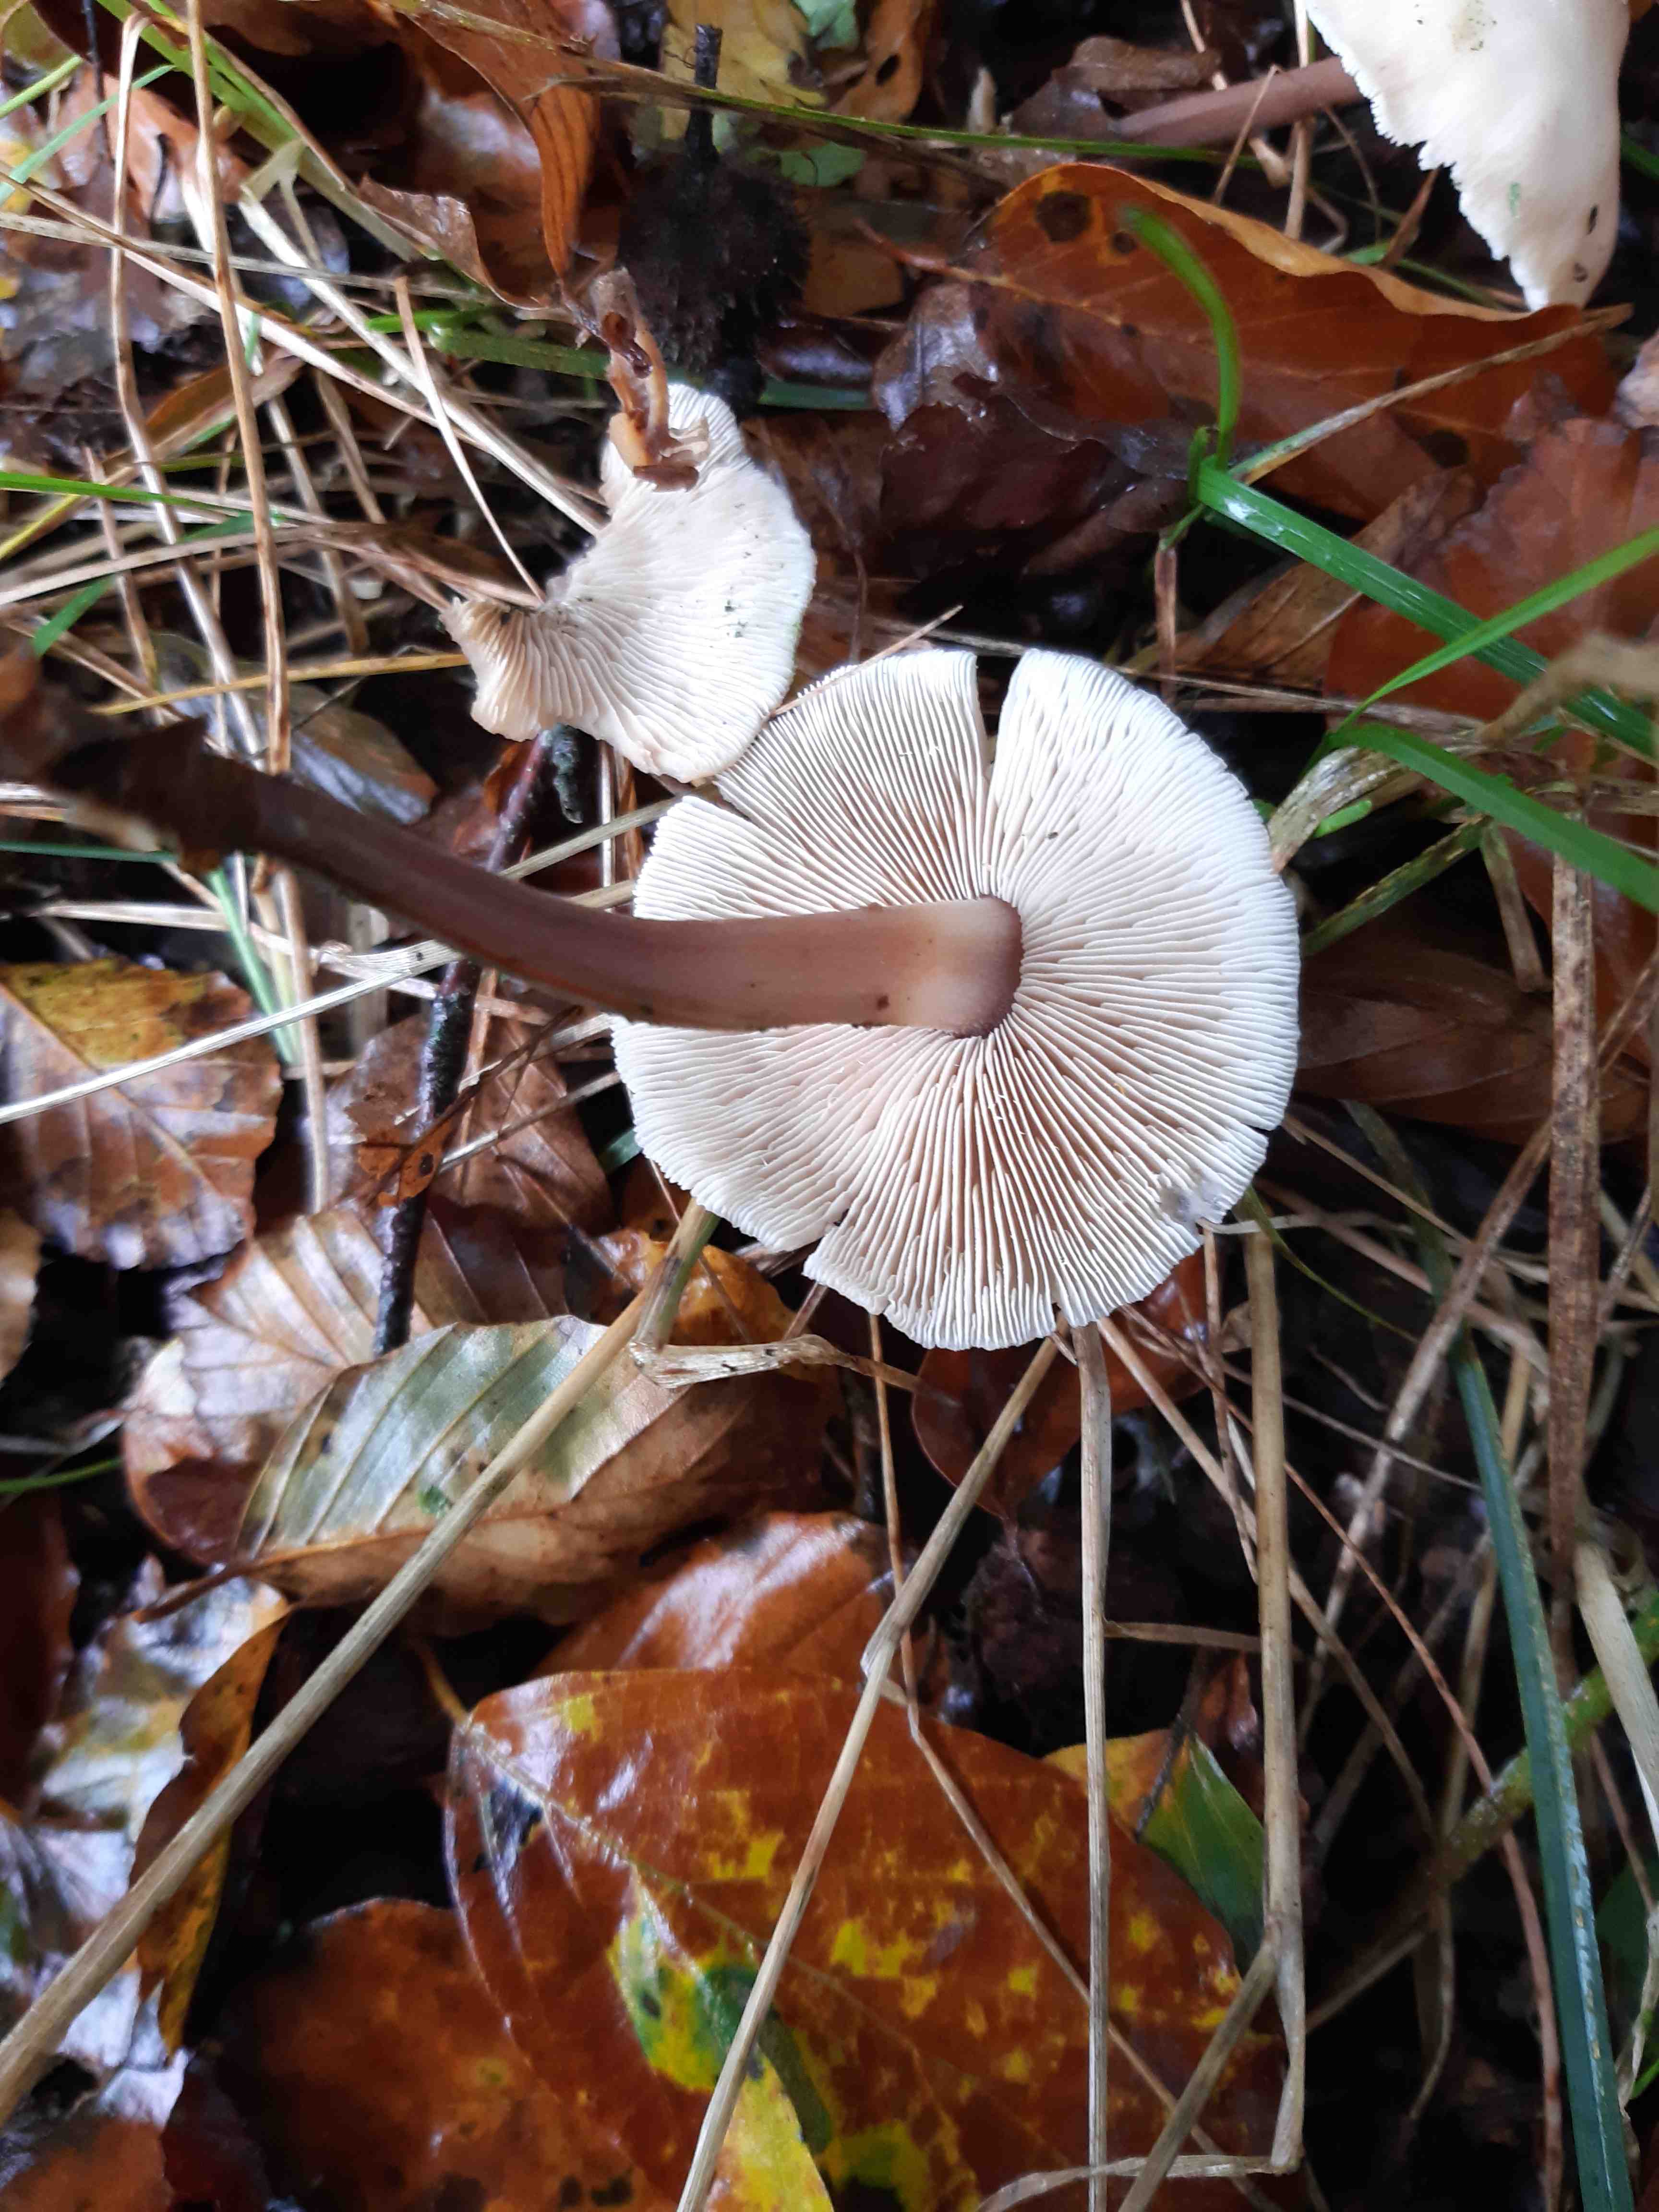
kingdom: Fungi
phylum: Basidiomycota
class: Agaricomycetes
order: Agaricales
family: Omphalotaceae
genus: Gymnopus
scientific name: Gymnopus erythropus
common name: rødstokket fladhat
